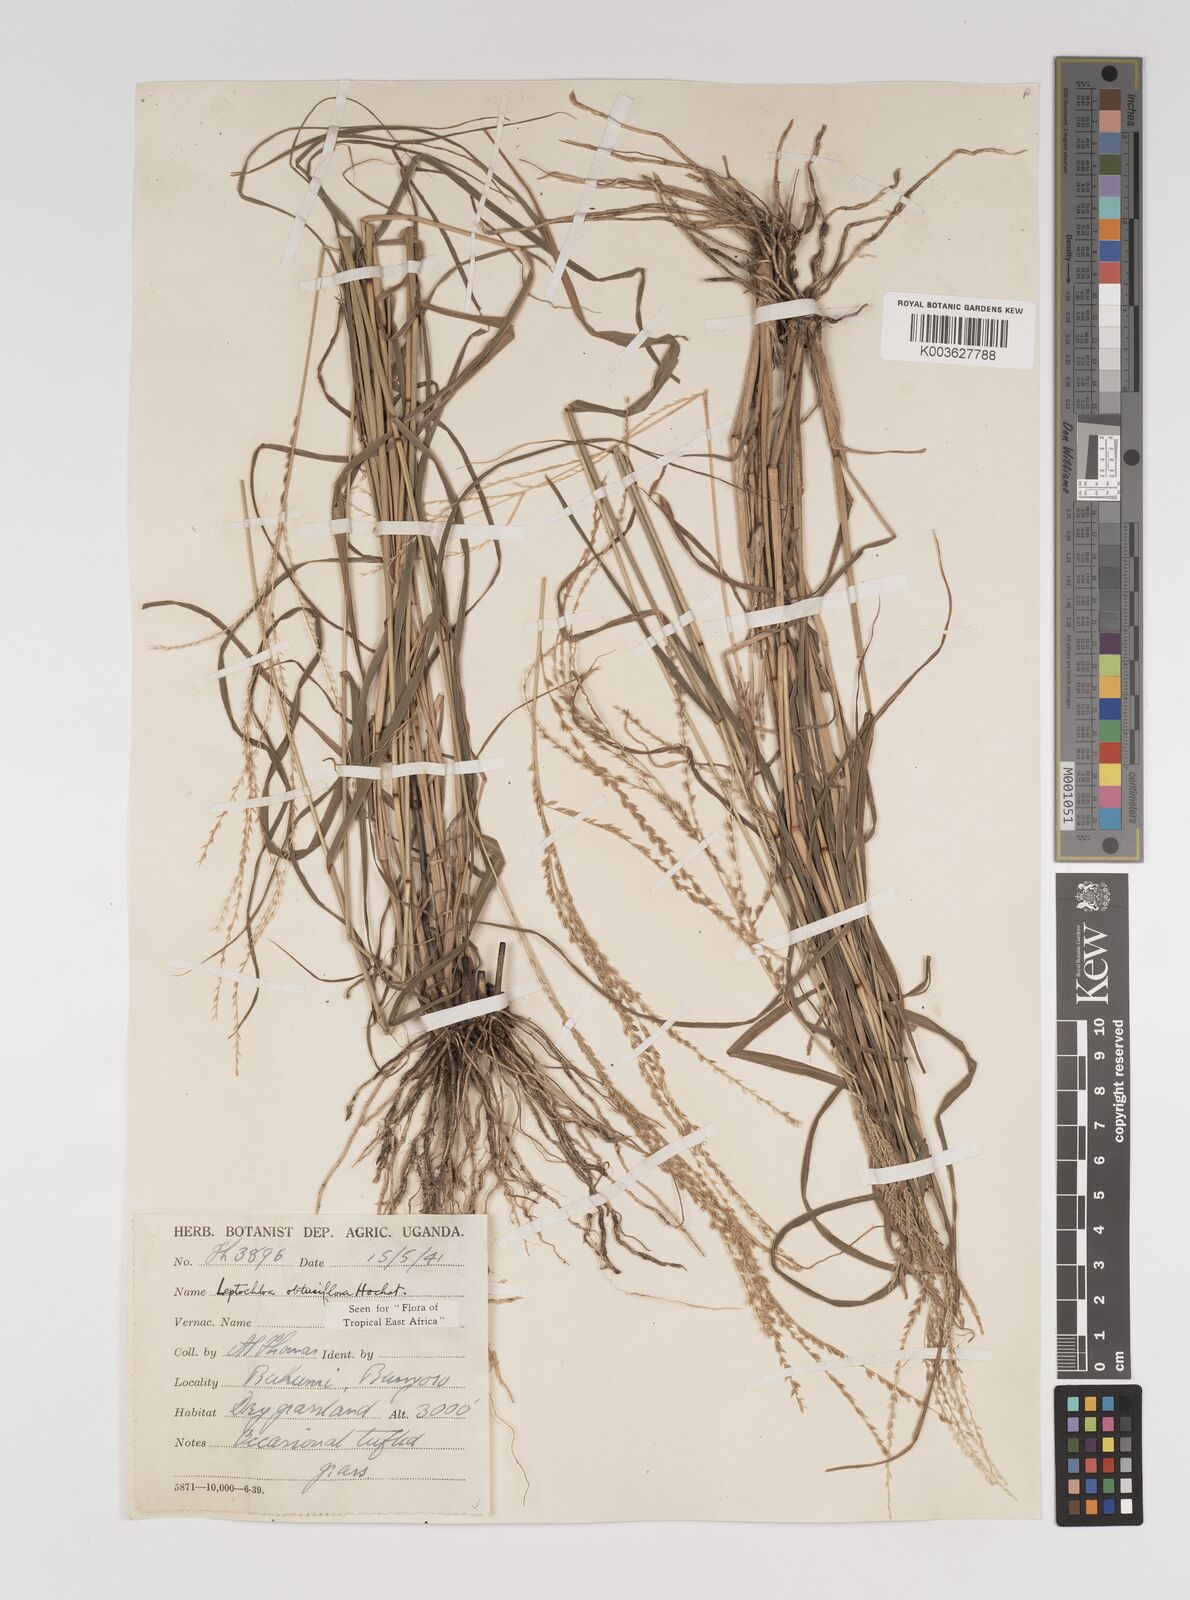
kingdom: Plantae
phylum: Tracheophyta
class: Liliopsida
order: Poales
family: Poaceae
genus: Disakisperma
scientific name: Disakisperma obtusiflorum
